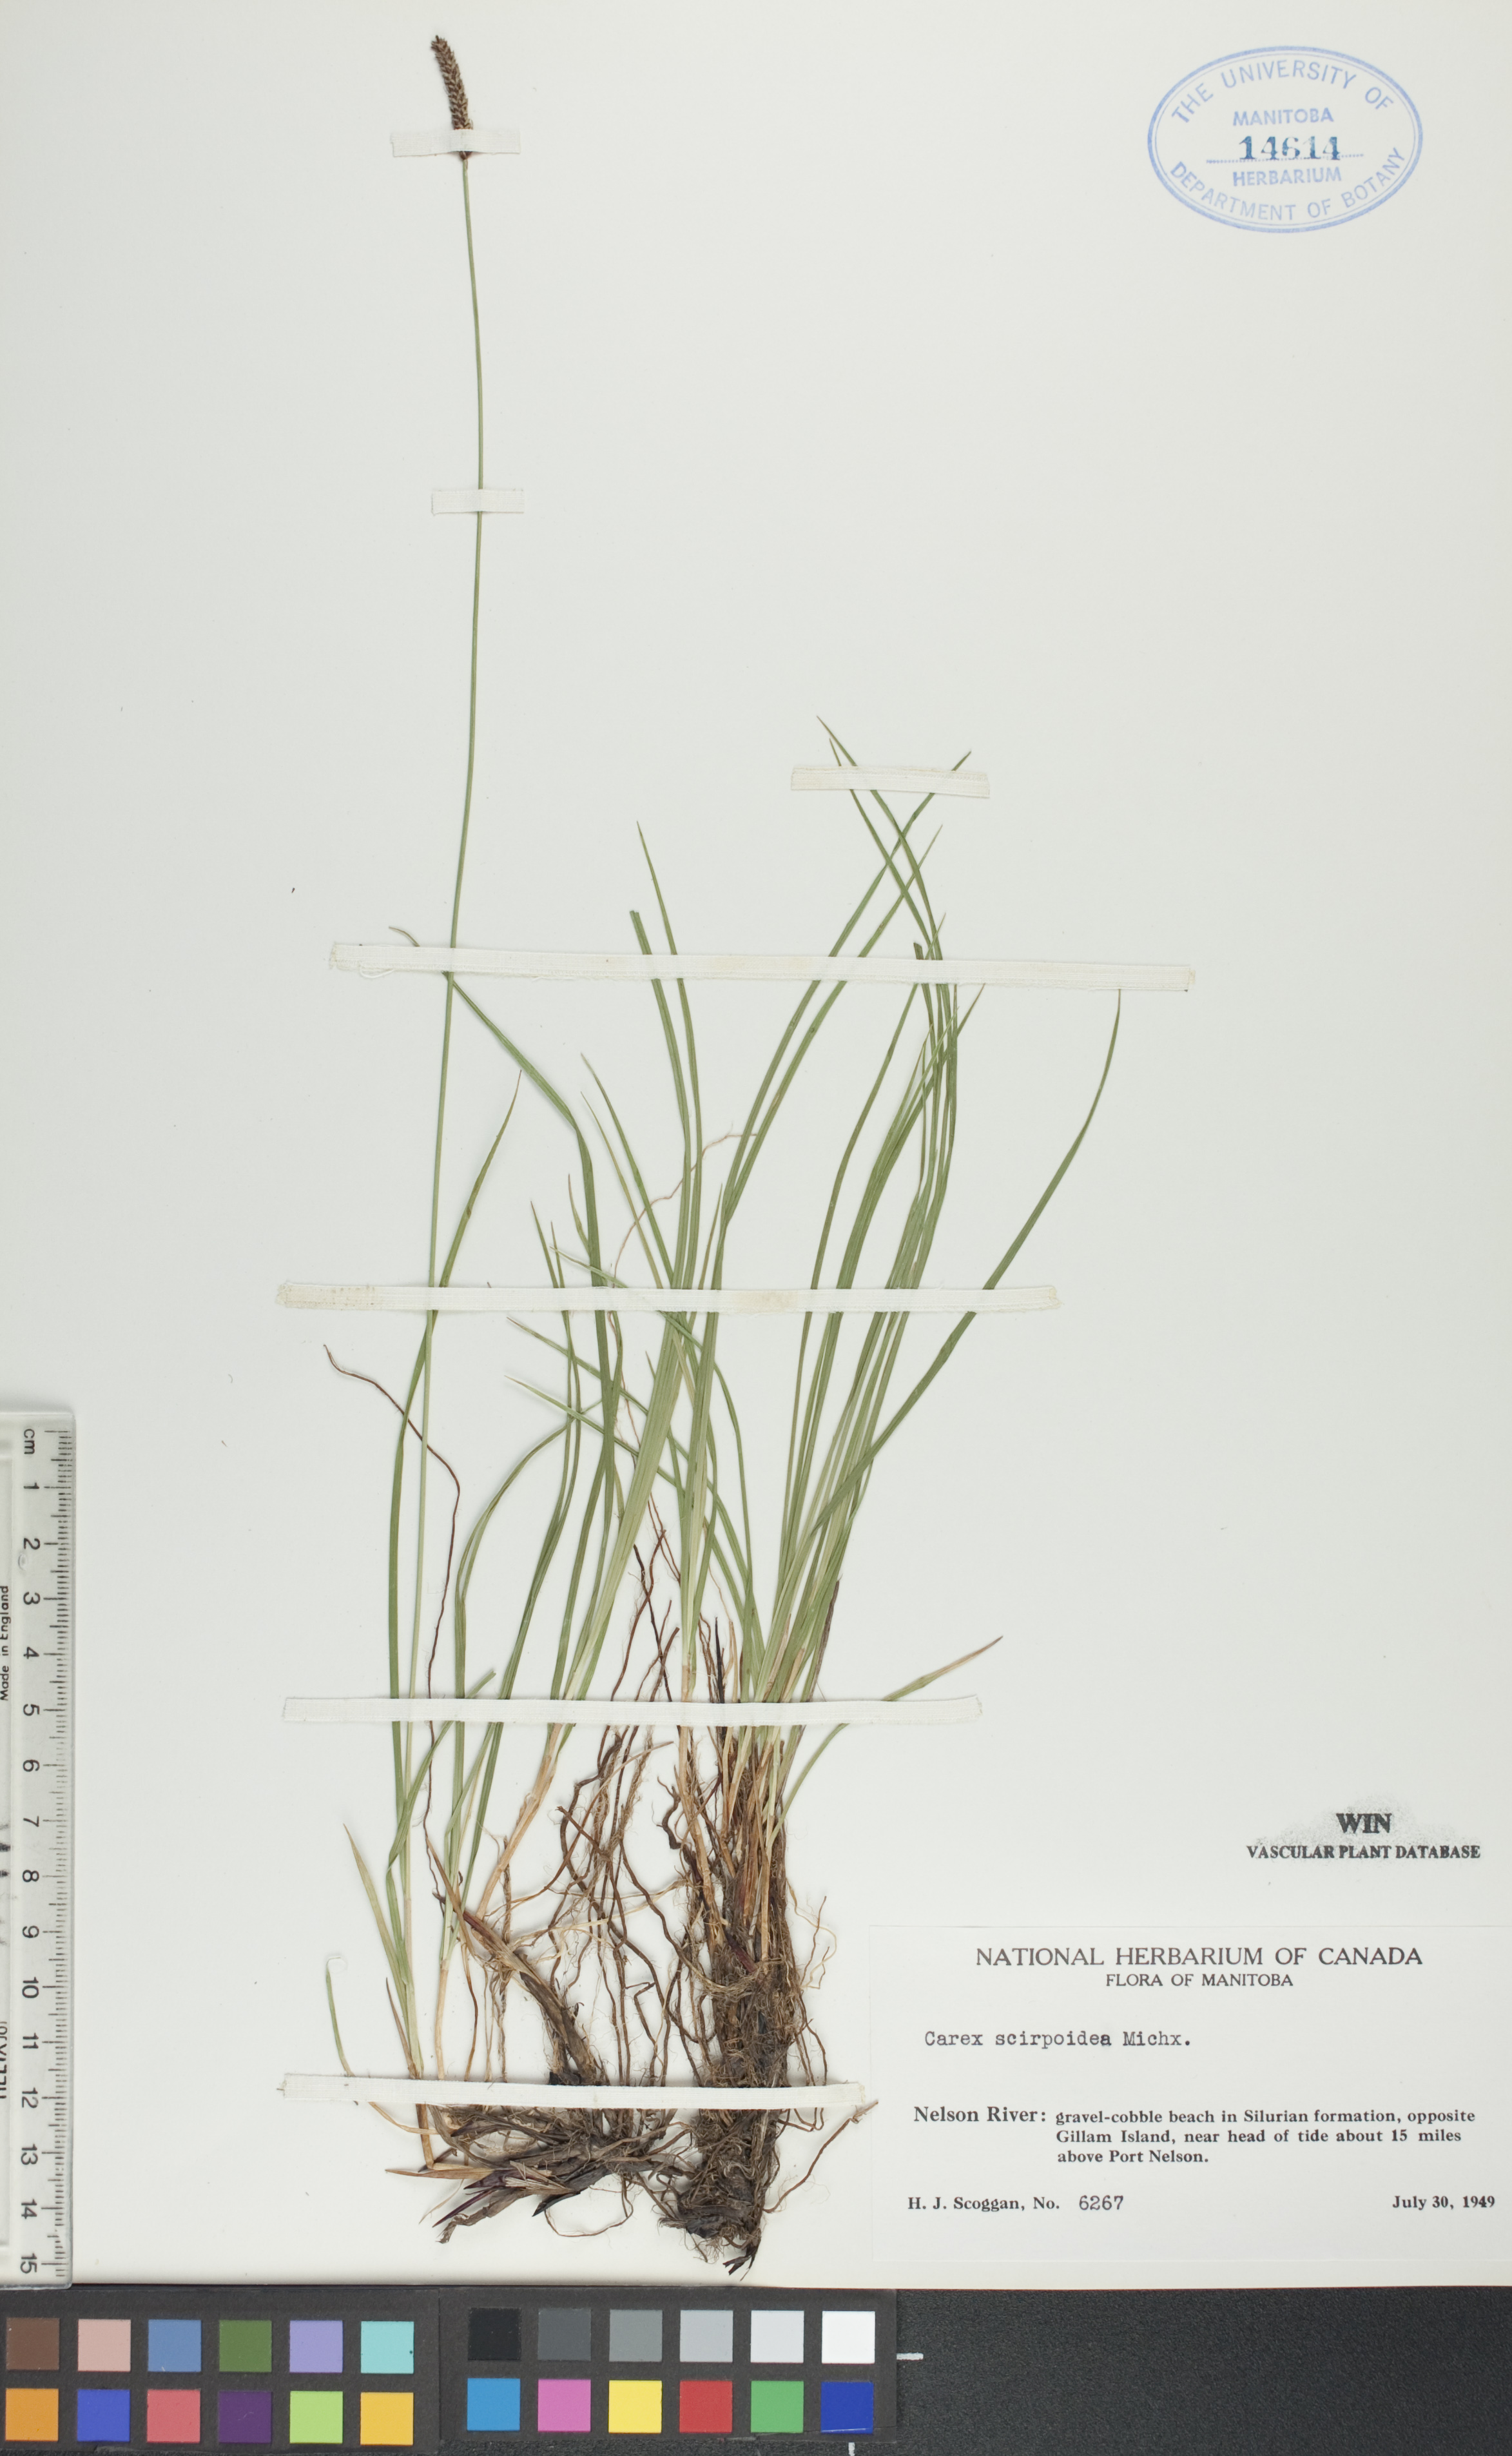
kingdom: Plantae
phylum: Tracheophyta
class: Liliopsida
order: Poales
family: Cyperaceae
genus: Carex
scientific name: Carex scirpoidea
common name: Canada single-spike sedge
